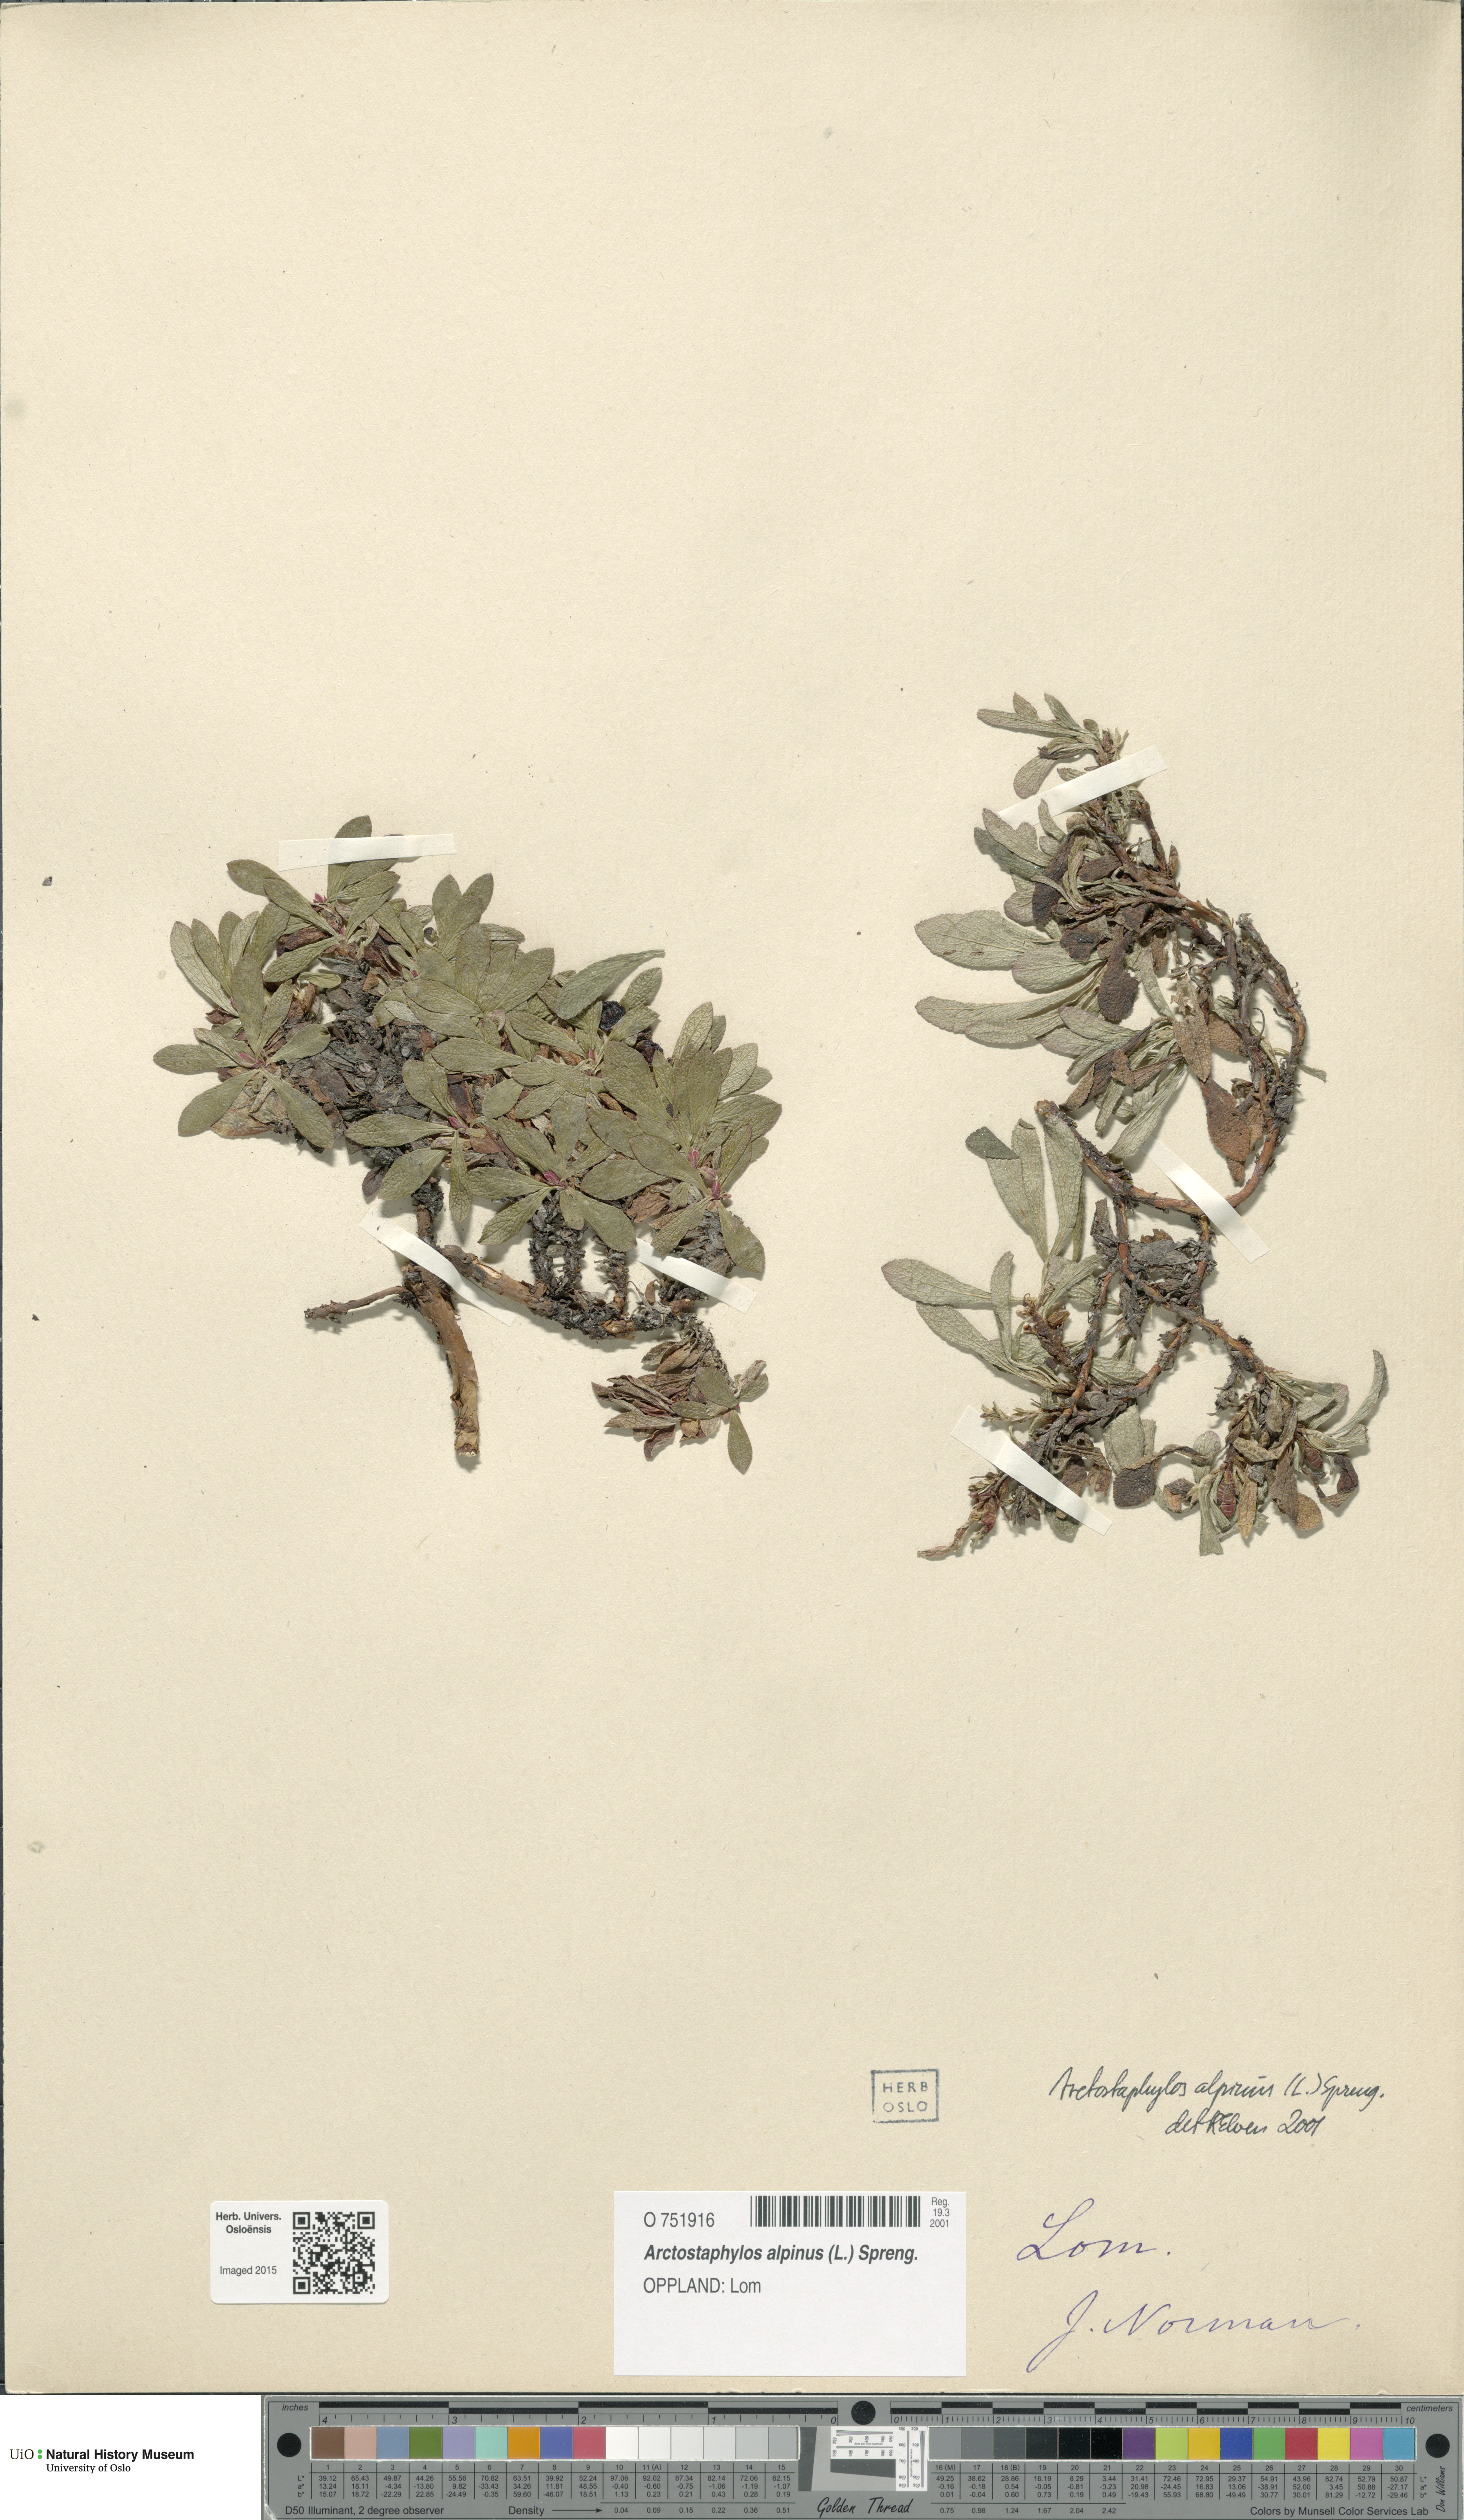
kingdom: Plantae
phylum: Tracheophyta
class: Magnoliopsida
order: Ericales
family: Ericaceae
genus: Arctostaphylos
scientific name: Arctostaphylos alpinus
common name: Alpine bearberry
